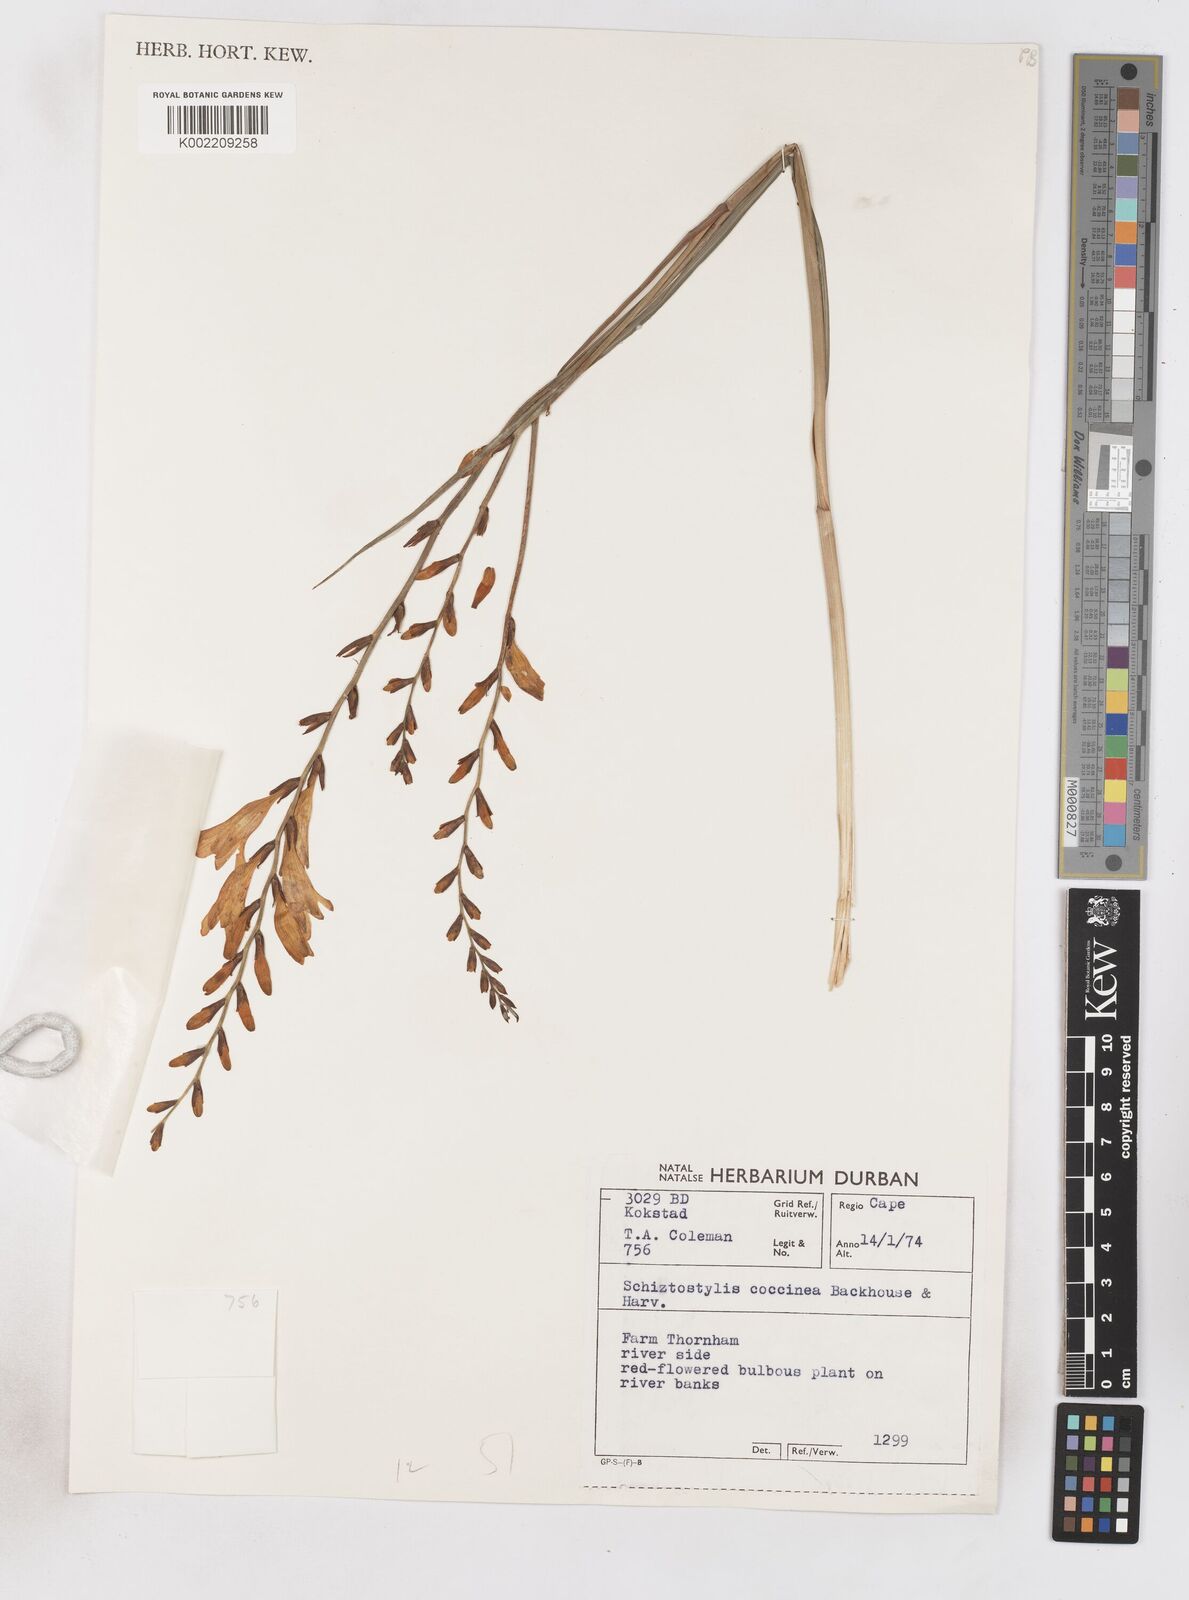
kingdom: Plantae
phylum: Tracheophyta
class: Liliopsida
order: Asparagales
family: Iridaceae
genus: Crocosmia
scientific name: Crocosmia pottsii
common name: Pott's montbretia
